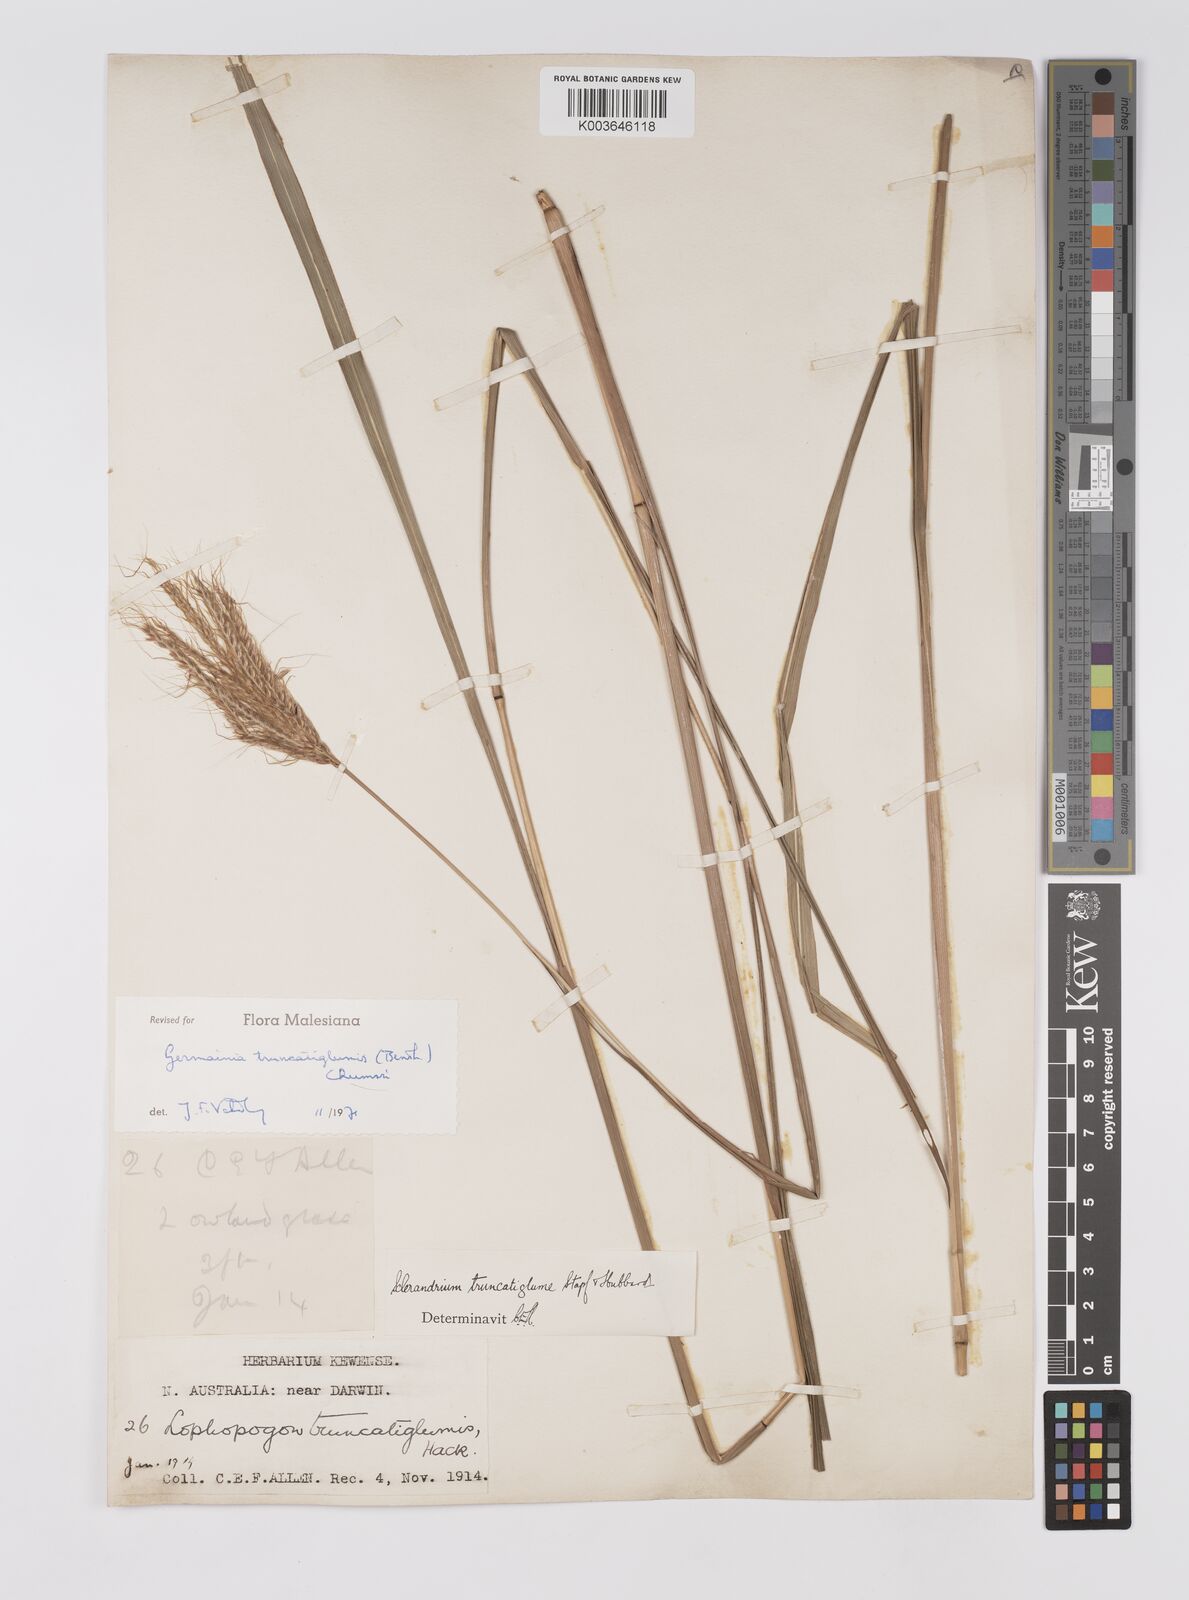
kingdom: Plantae
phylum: Tracheophyta
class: Liliopsida
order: Poales
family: Poaceae
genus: Germainia
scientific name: Germainia truncatiglumis
